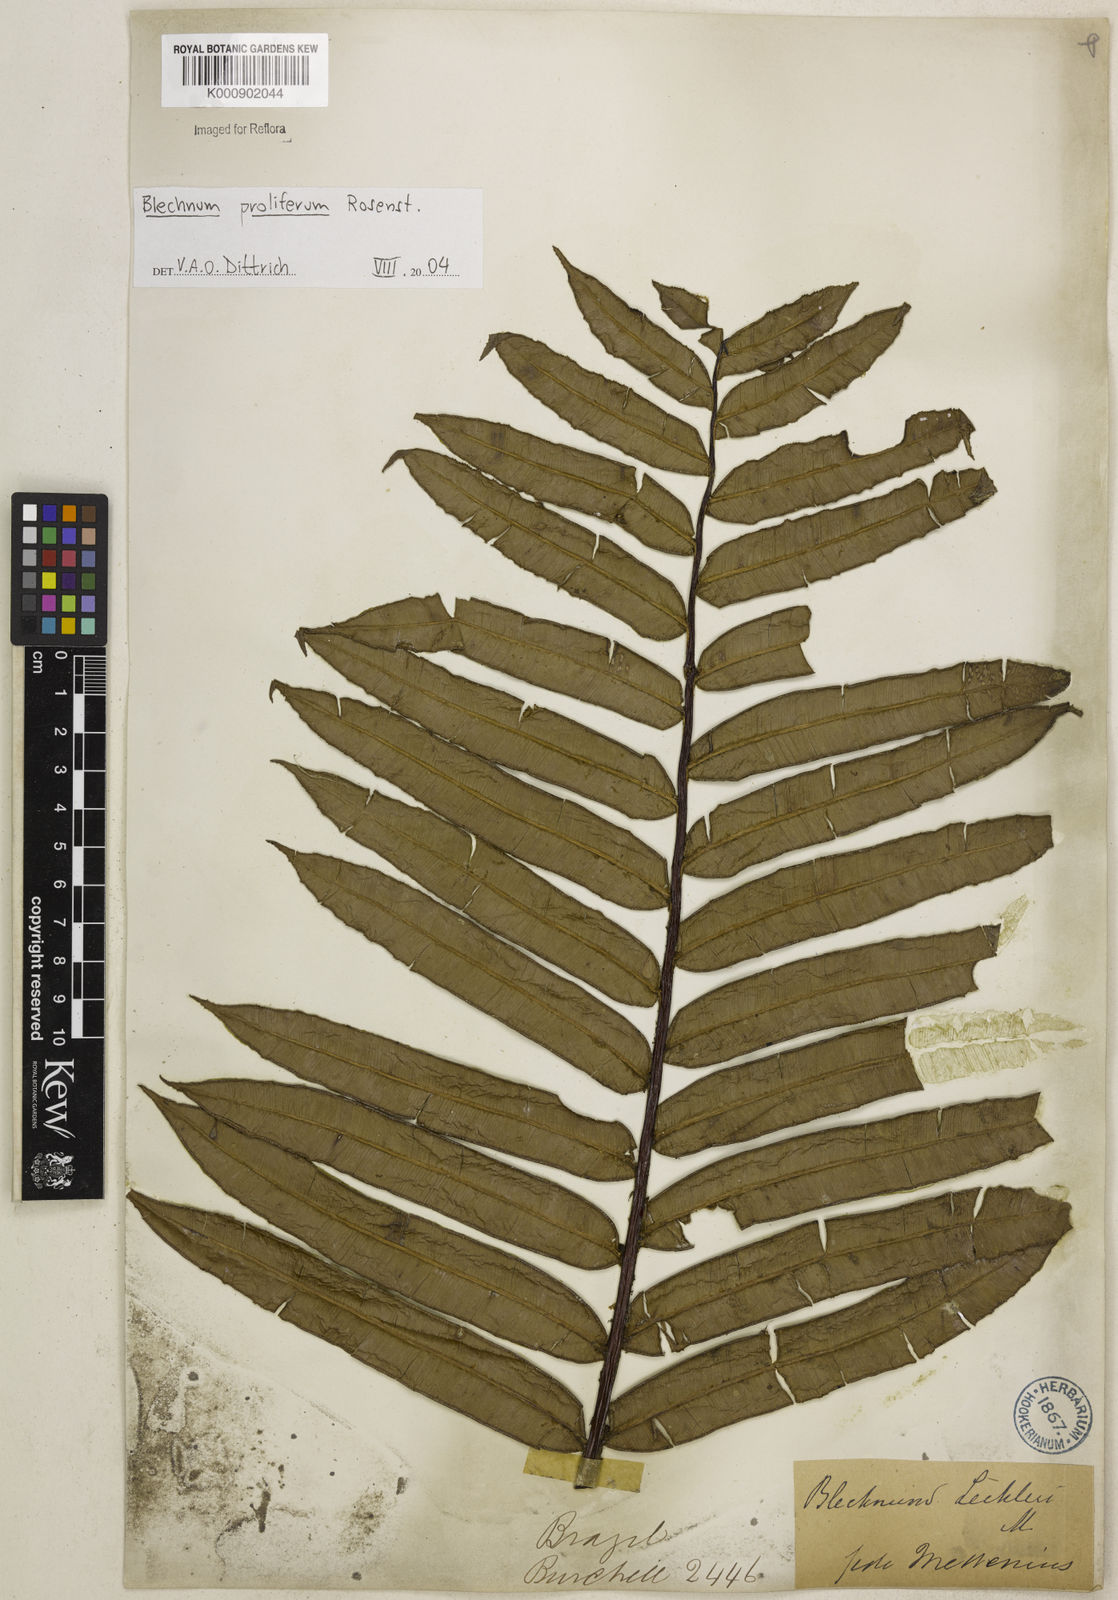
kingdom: Plantae
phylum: Tracheophyta
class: Polypodiopsida
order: Polypodiales
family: Blechnaceae
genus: Parablechnum
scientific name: Parablechnum proliferum
